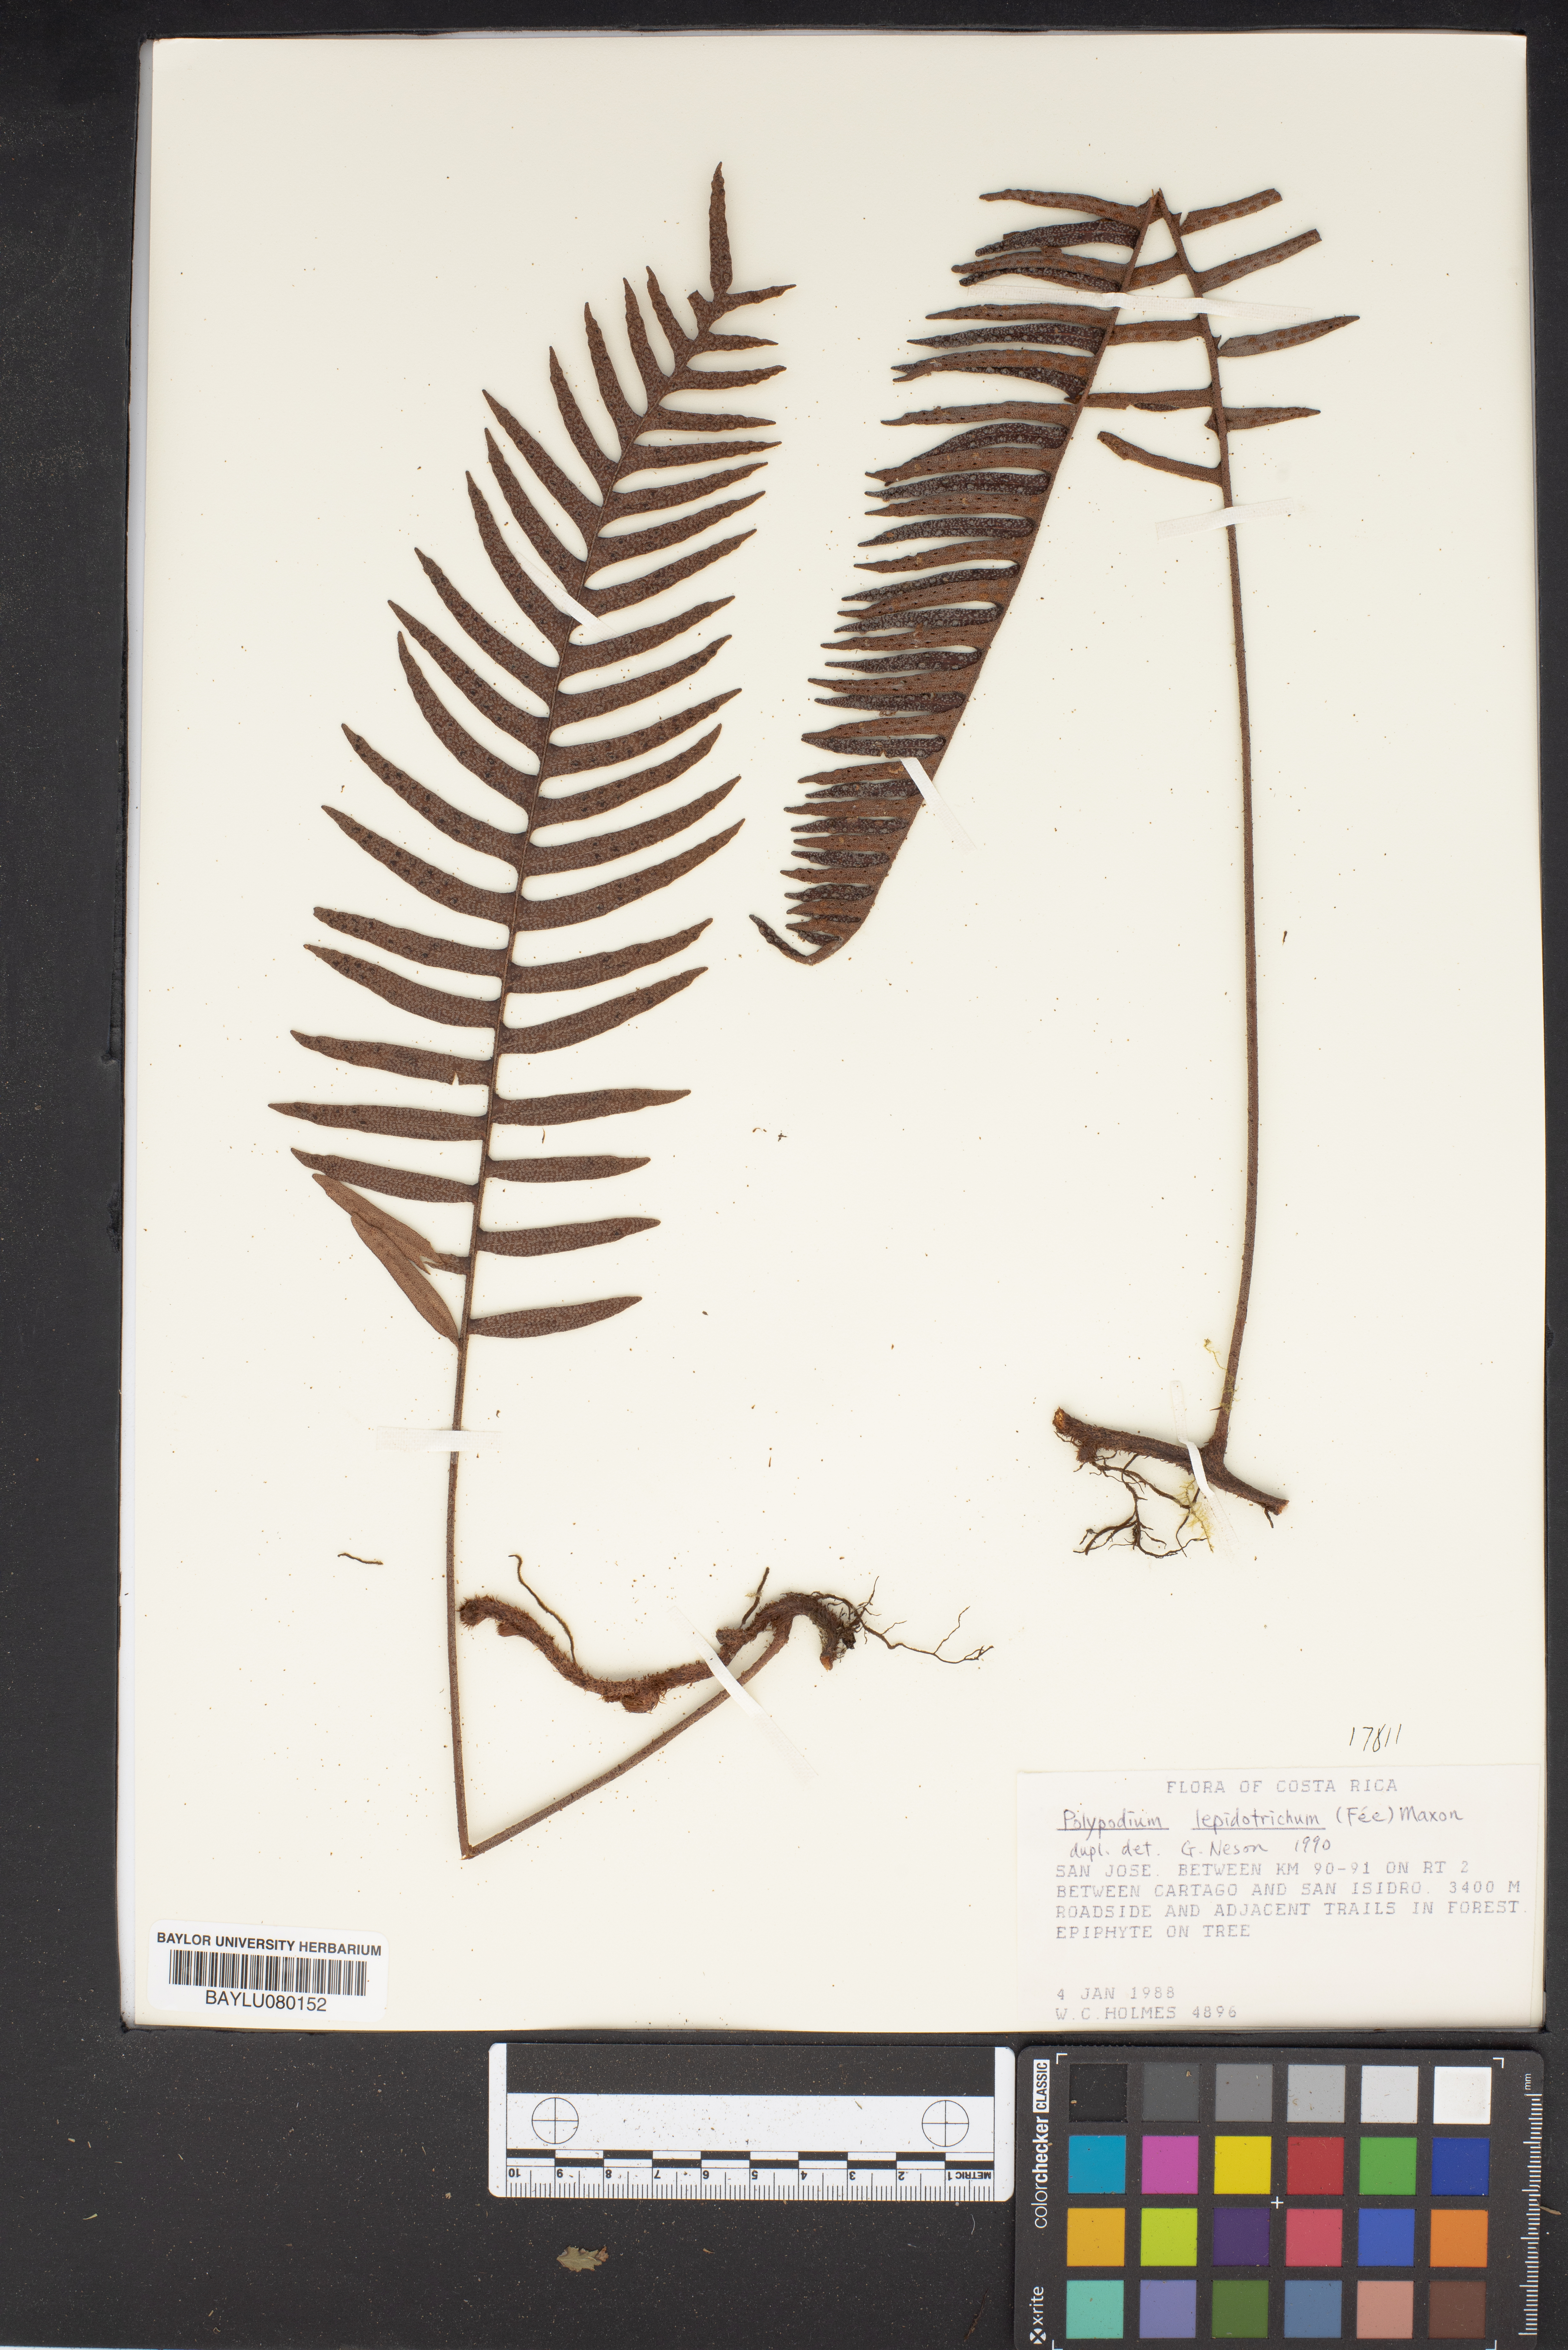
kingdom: Plantae
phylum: Tracheophyta
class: Polypodiopsida
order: Polypodiales
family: Polypodiaceae
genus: Pleopeltis
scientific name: Pleopeltis lepidotricha
